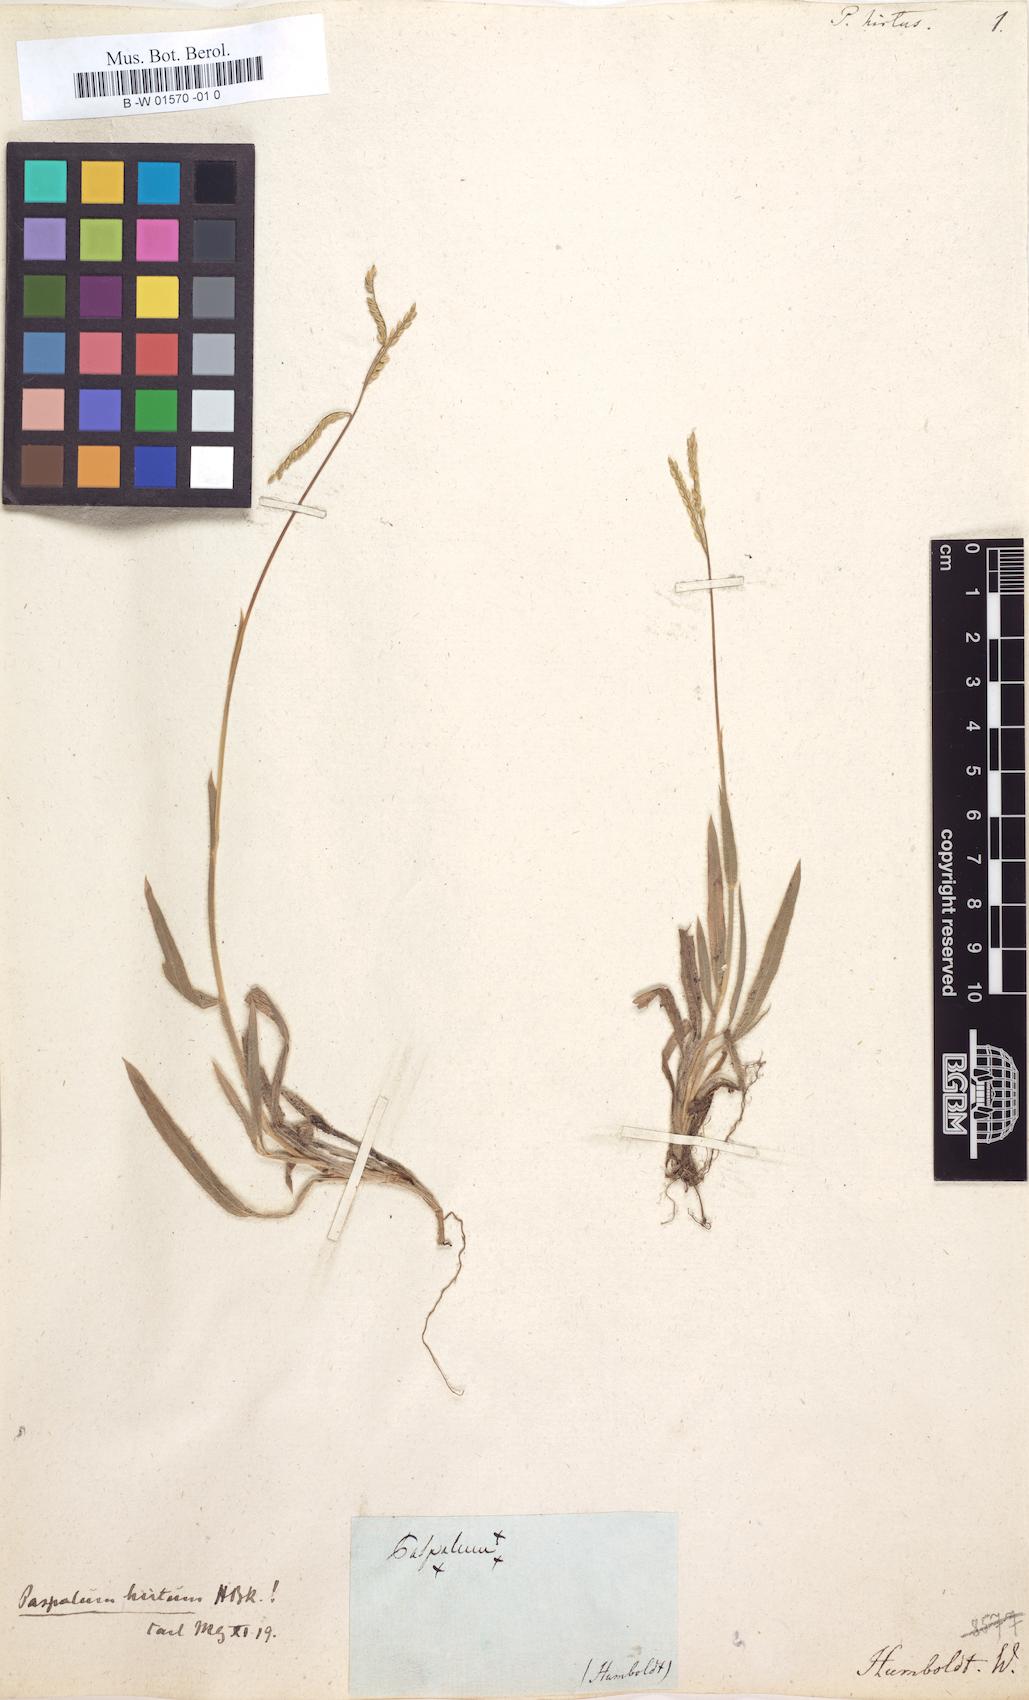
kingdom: Plantae
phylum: Tracheophyta
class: Liliopsida
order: Poales
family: Poaceae
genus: Paspalum
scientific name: Paspalum hirtum
